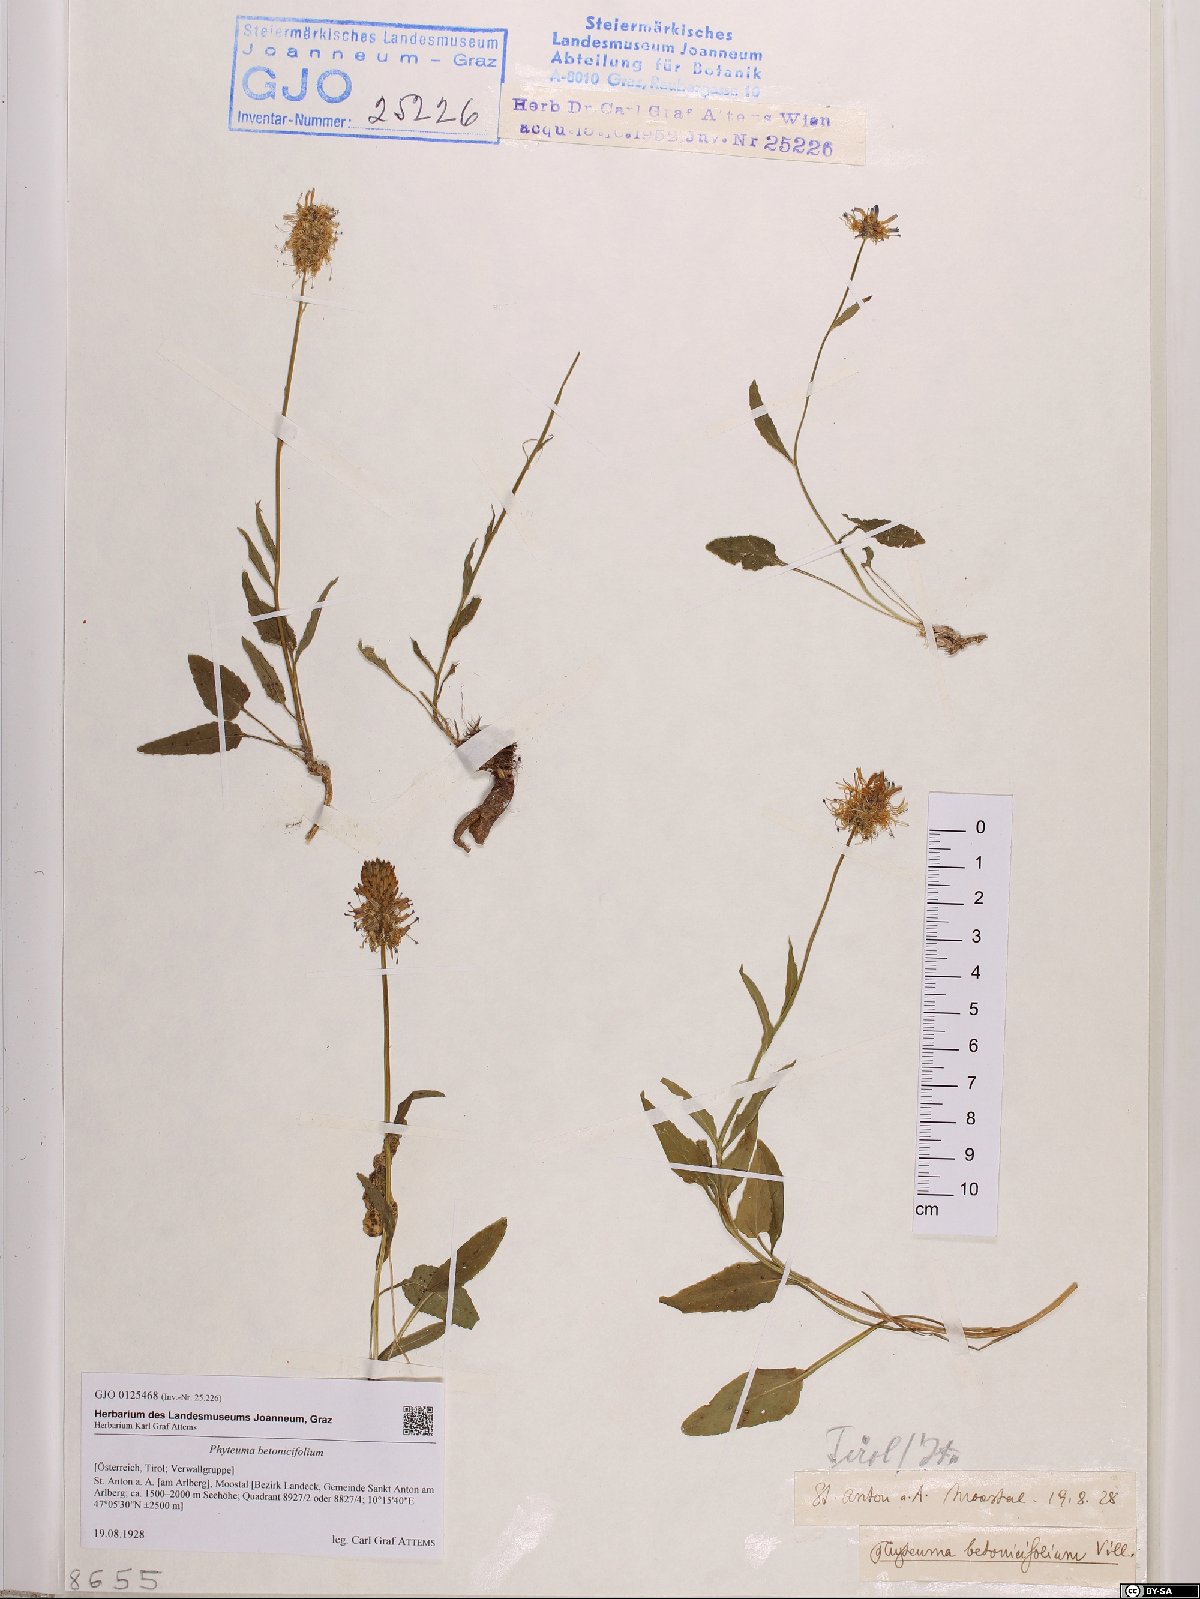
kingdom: Plantae
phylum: Tracheophyta
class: Magnoliopsida
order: Asterales
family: Campanulaceae
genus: Phyteuma
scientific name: Phyteuma betonicifolium
